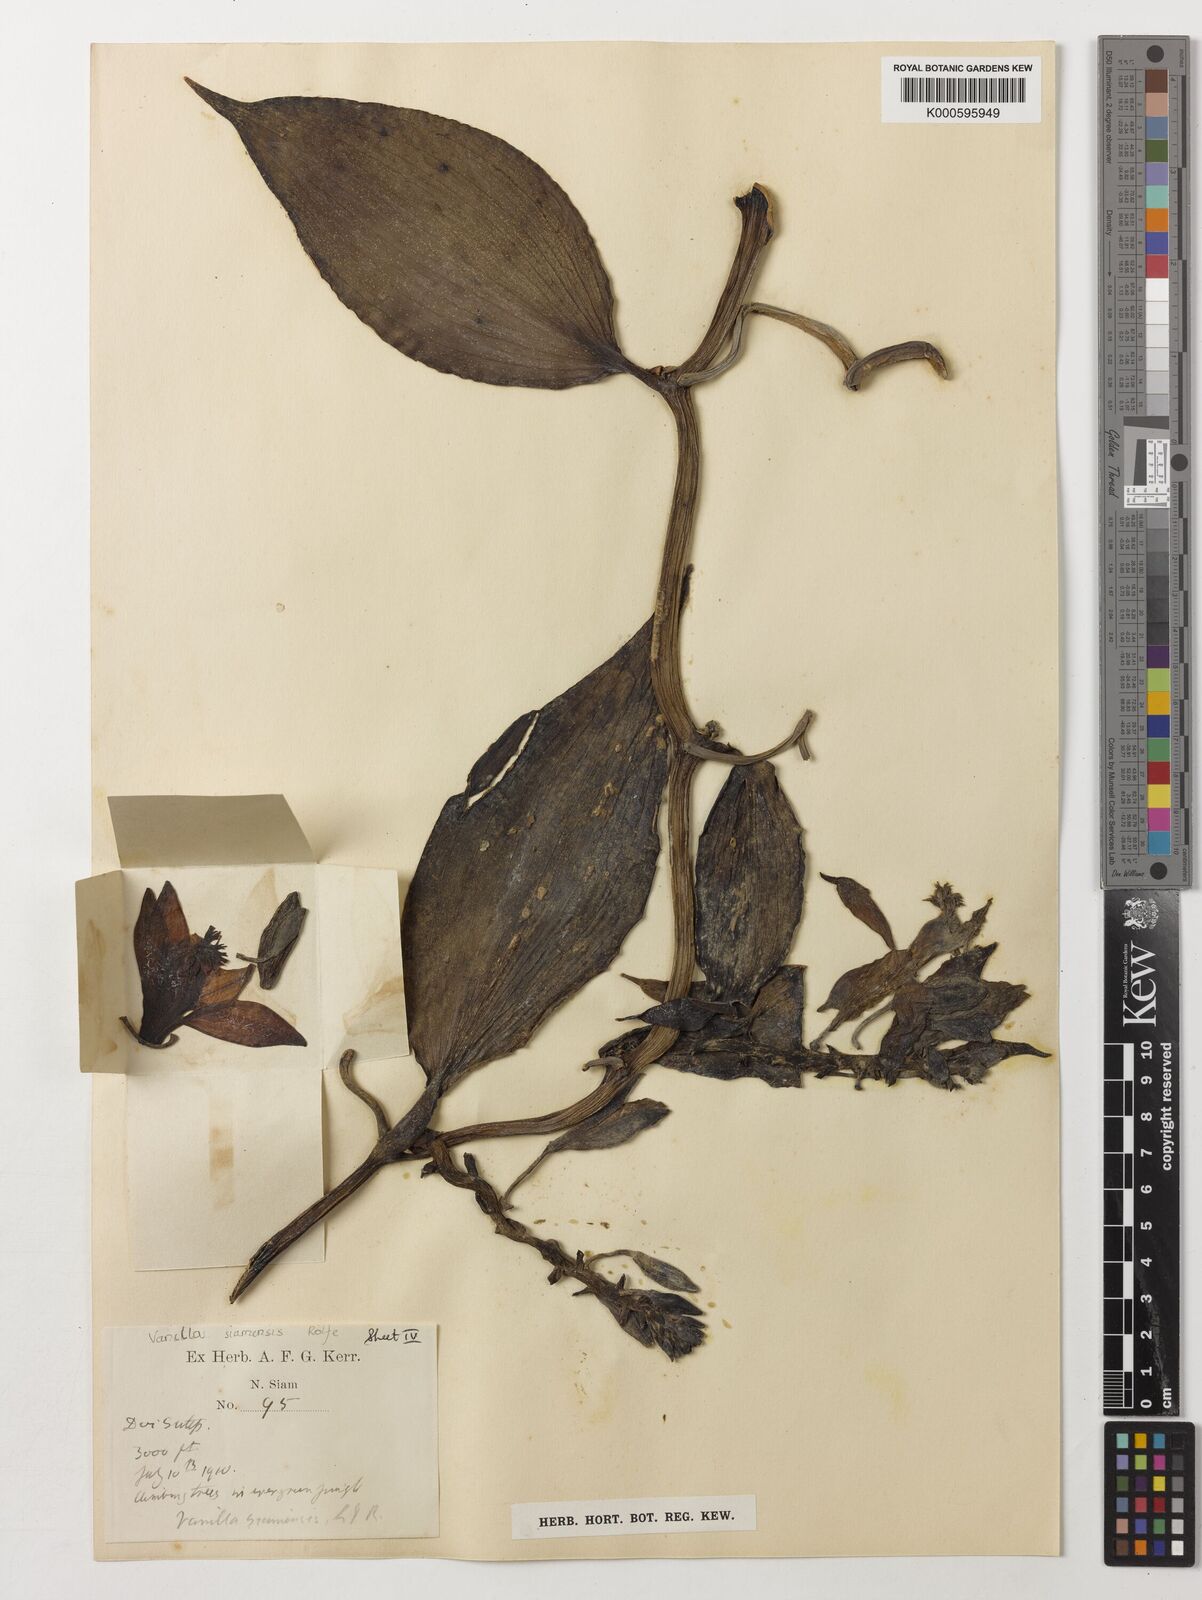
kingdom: Plantae
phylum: Tracheophyta
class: Liliopsida
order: Asparagales
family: Orchidaceae
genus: Vanilla
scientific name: Vanilla siamensis
